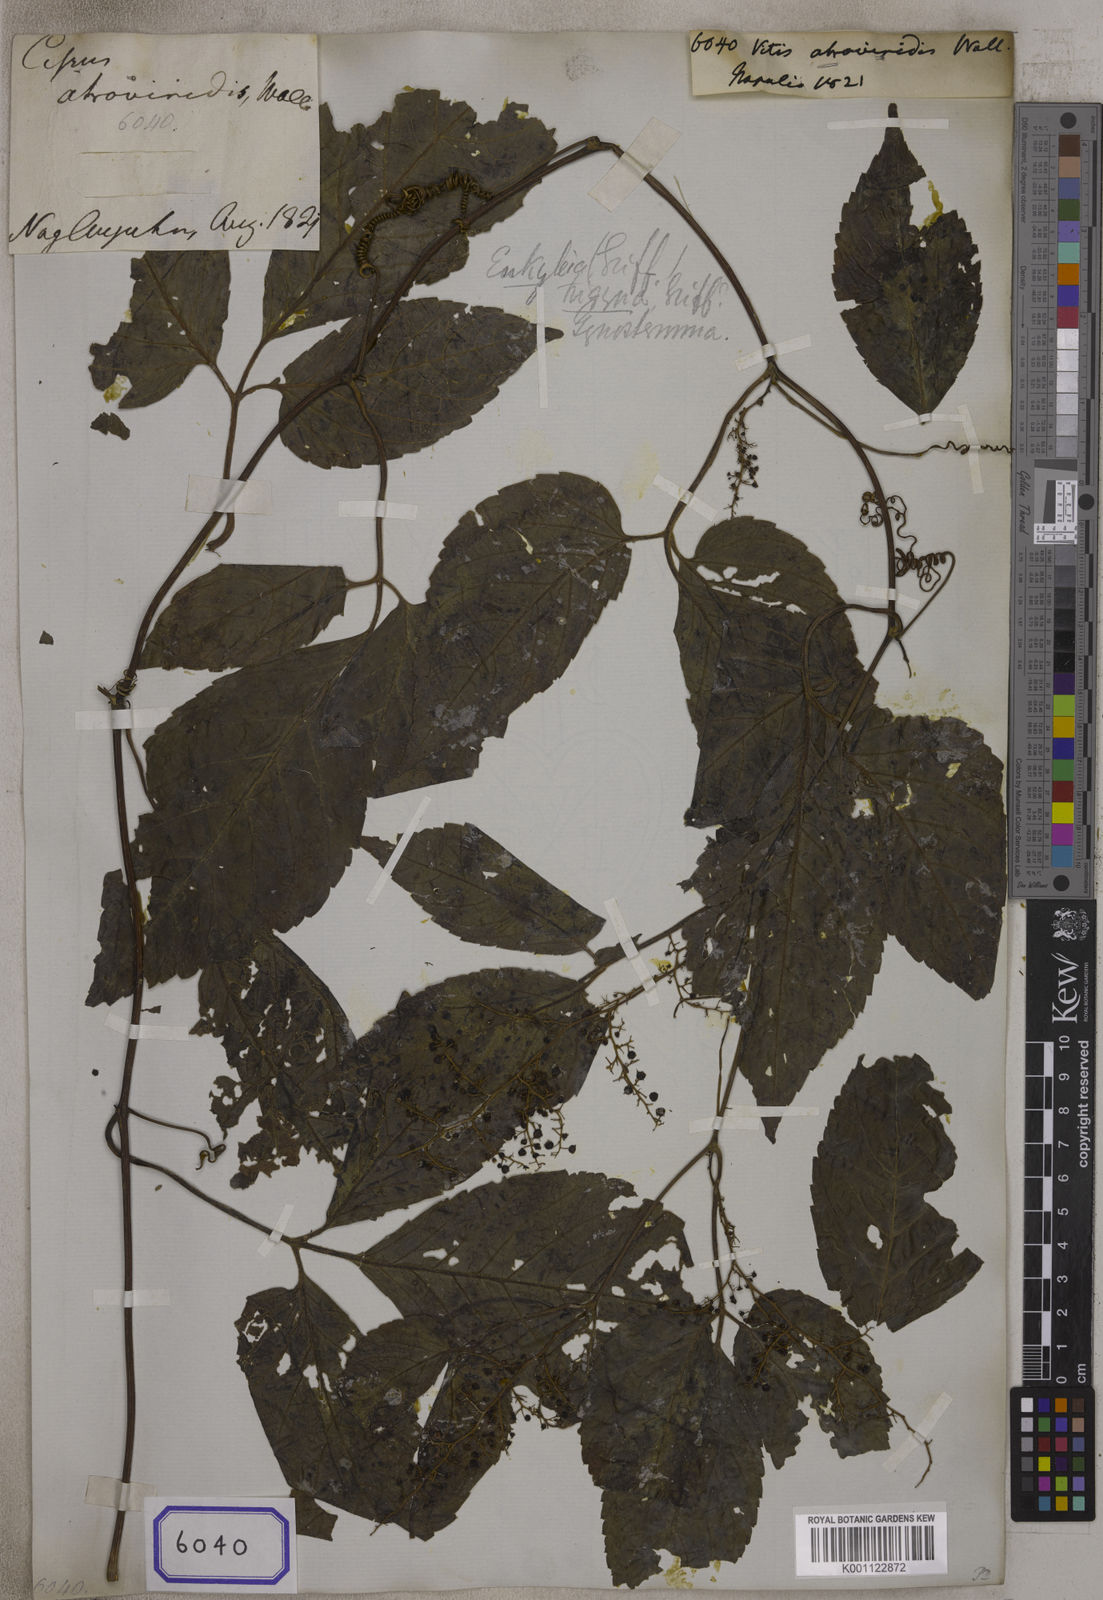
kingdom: Plantae
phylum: Tracheophyta
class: Magnoliopsida
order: Cucurbitales
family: Cucurbitaceae
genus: Gynostemma
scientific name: Gynostemma pentaphyllum
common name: Gynostemma
